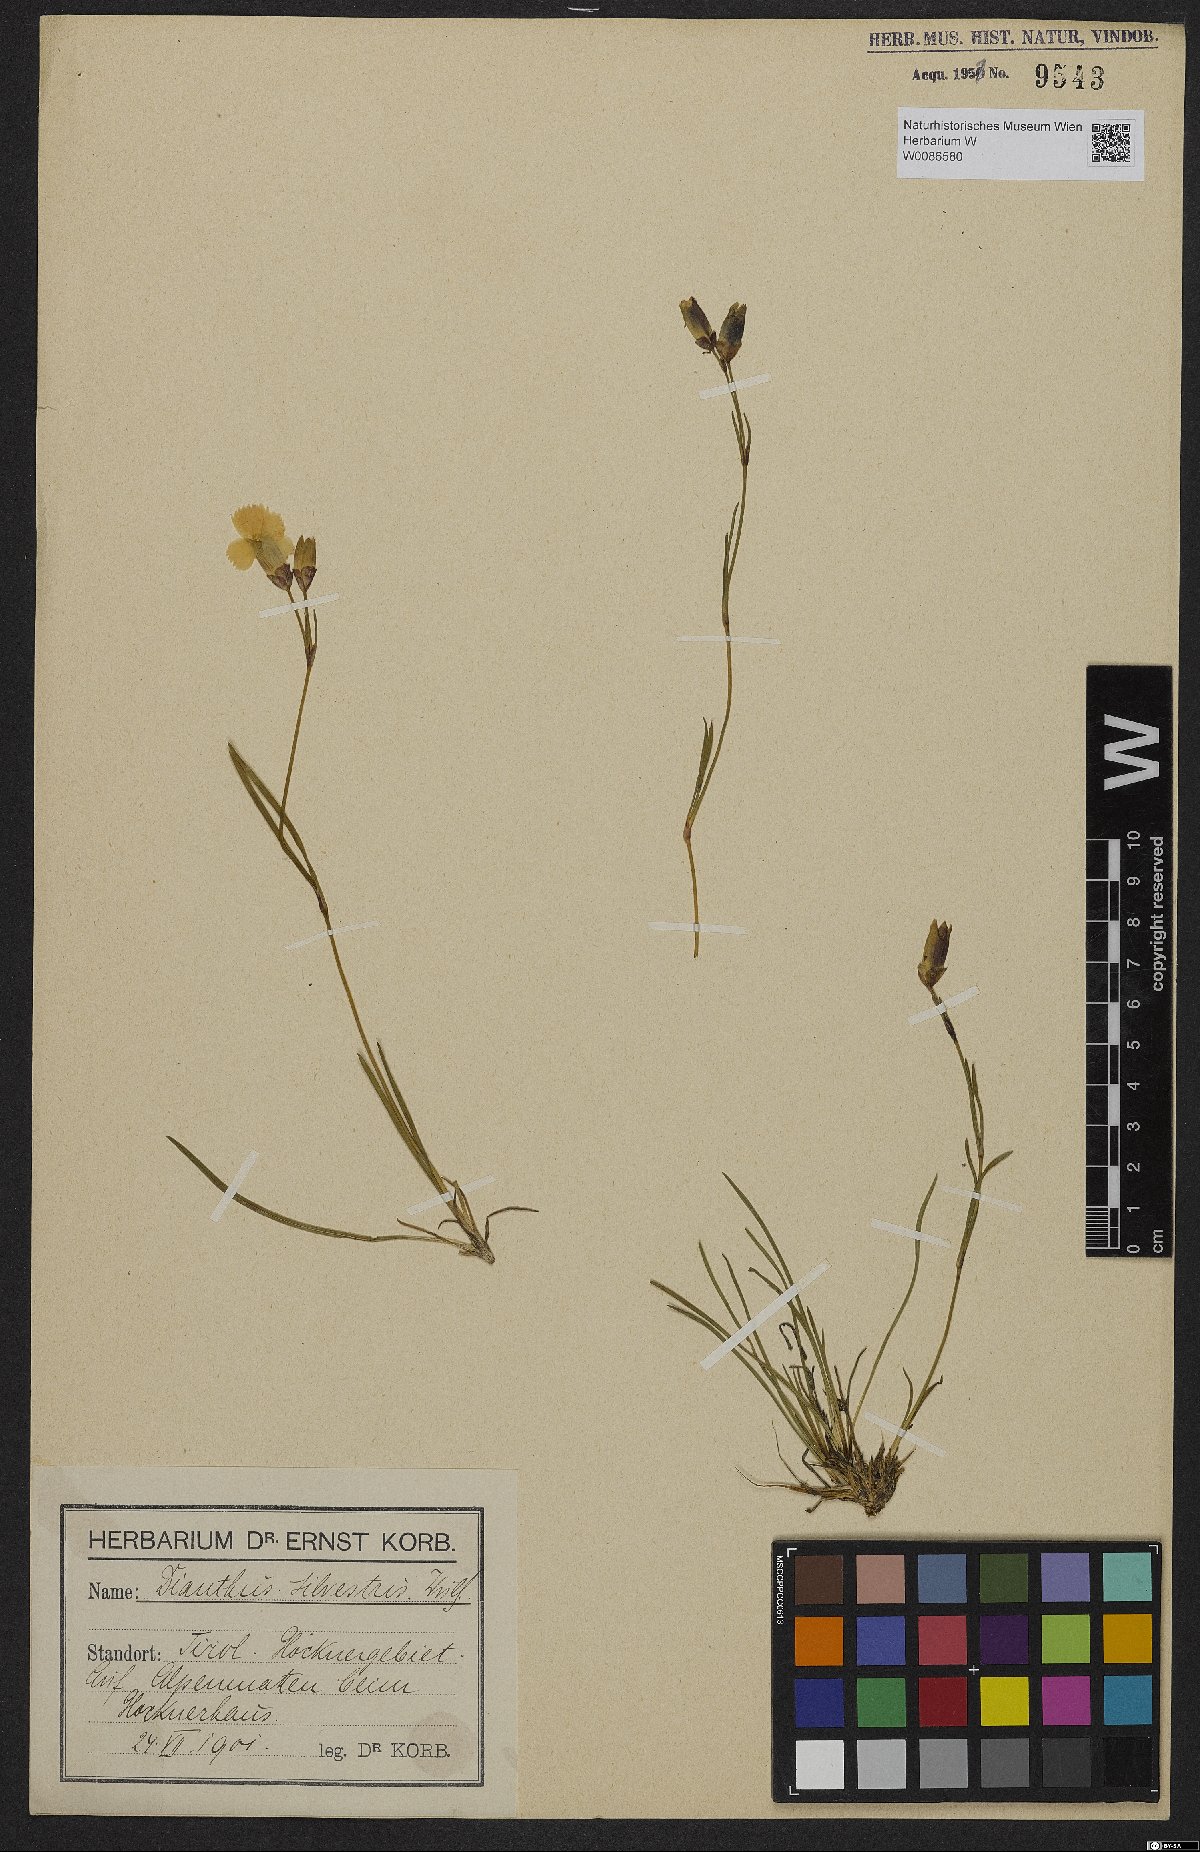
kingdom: Plantae
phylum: Tracheophyta
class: Magnoliopsida
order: Caryophyllales
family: Caryophyllaceae
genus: Dianthus
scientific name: Dianthus sylvestris
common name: Wood pink
